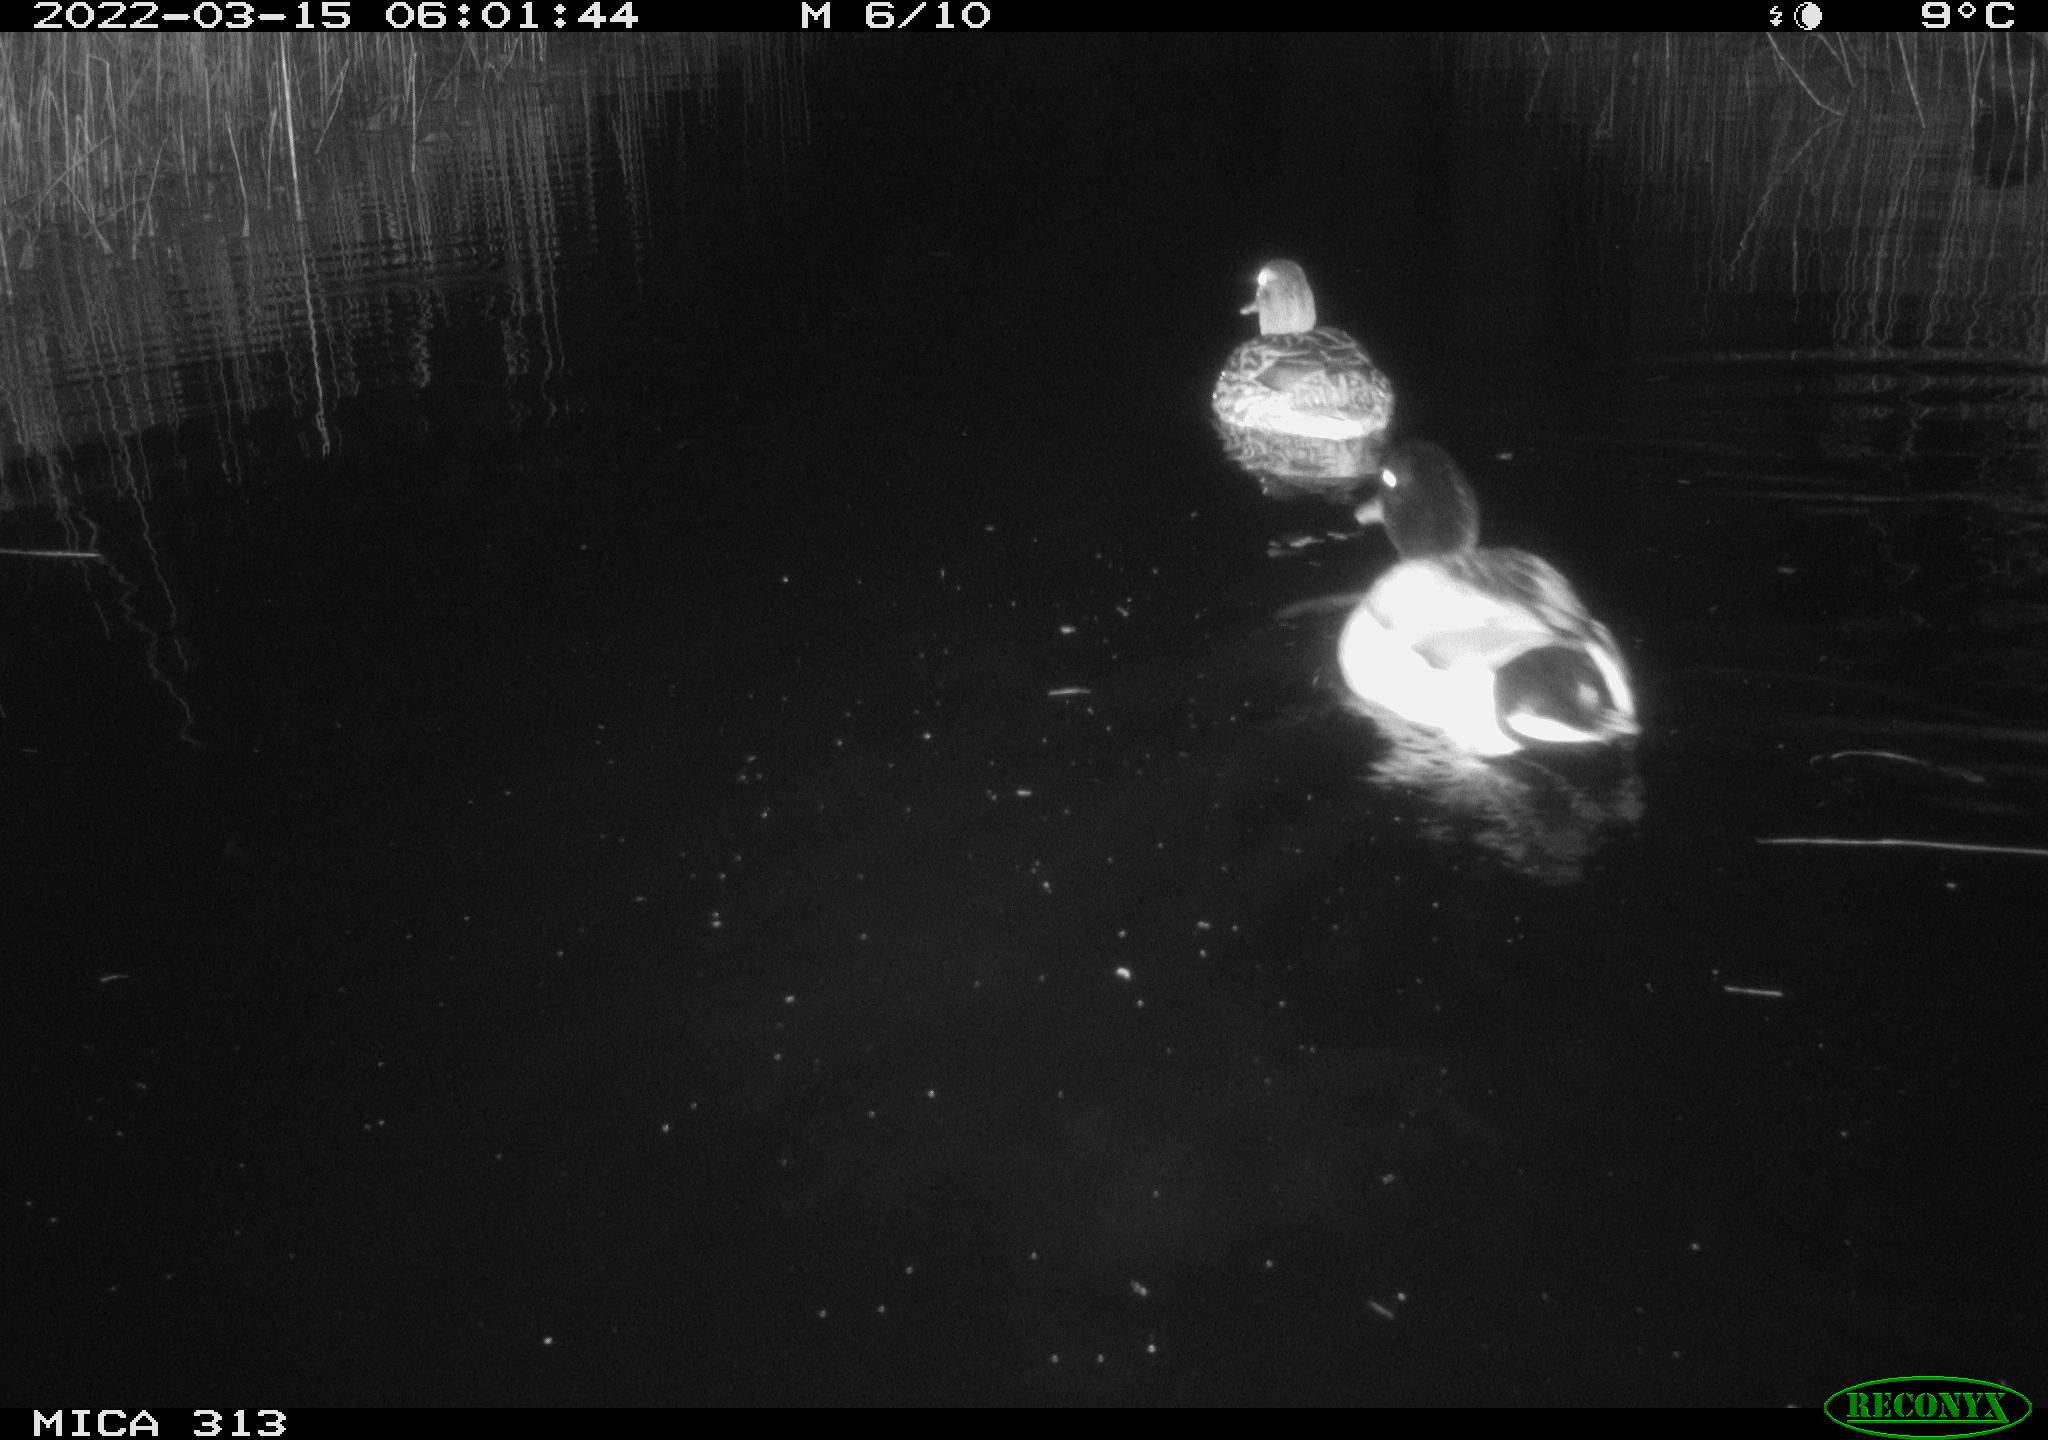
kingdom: Animalia
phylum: Chordata
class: Aves
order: Anseriformes
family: Anatidae
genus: Anas
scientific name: Anas platyrhynchos
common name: Mallard
